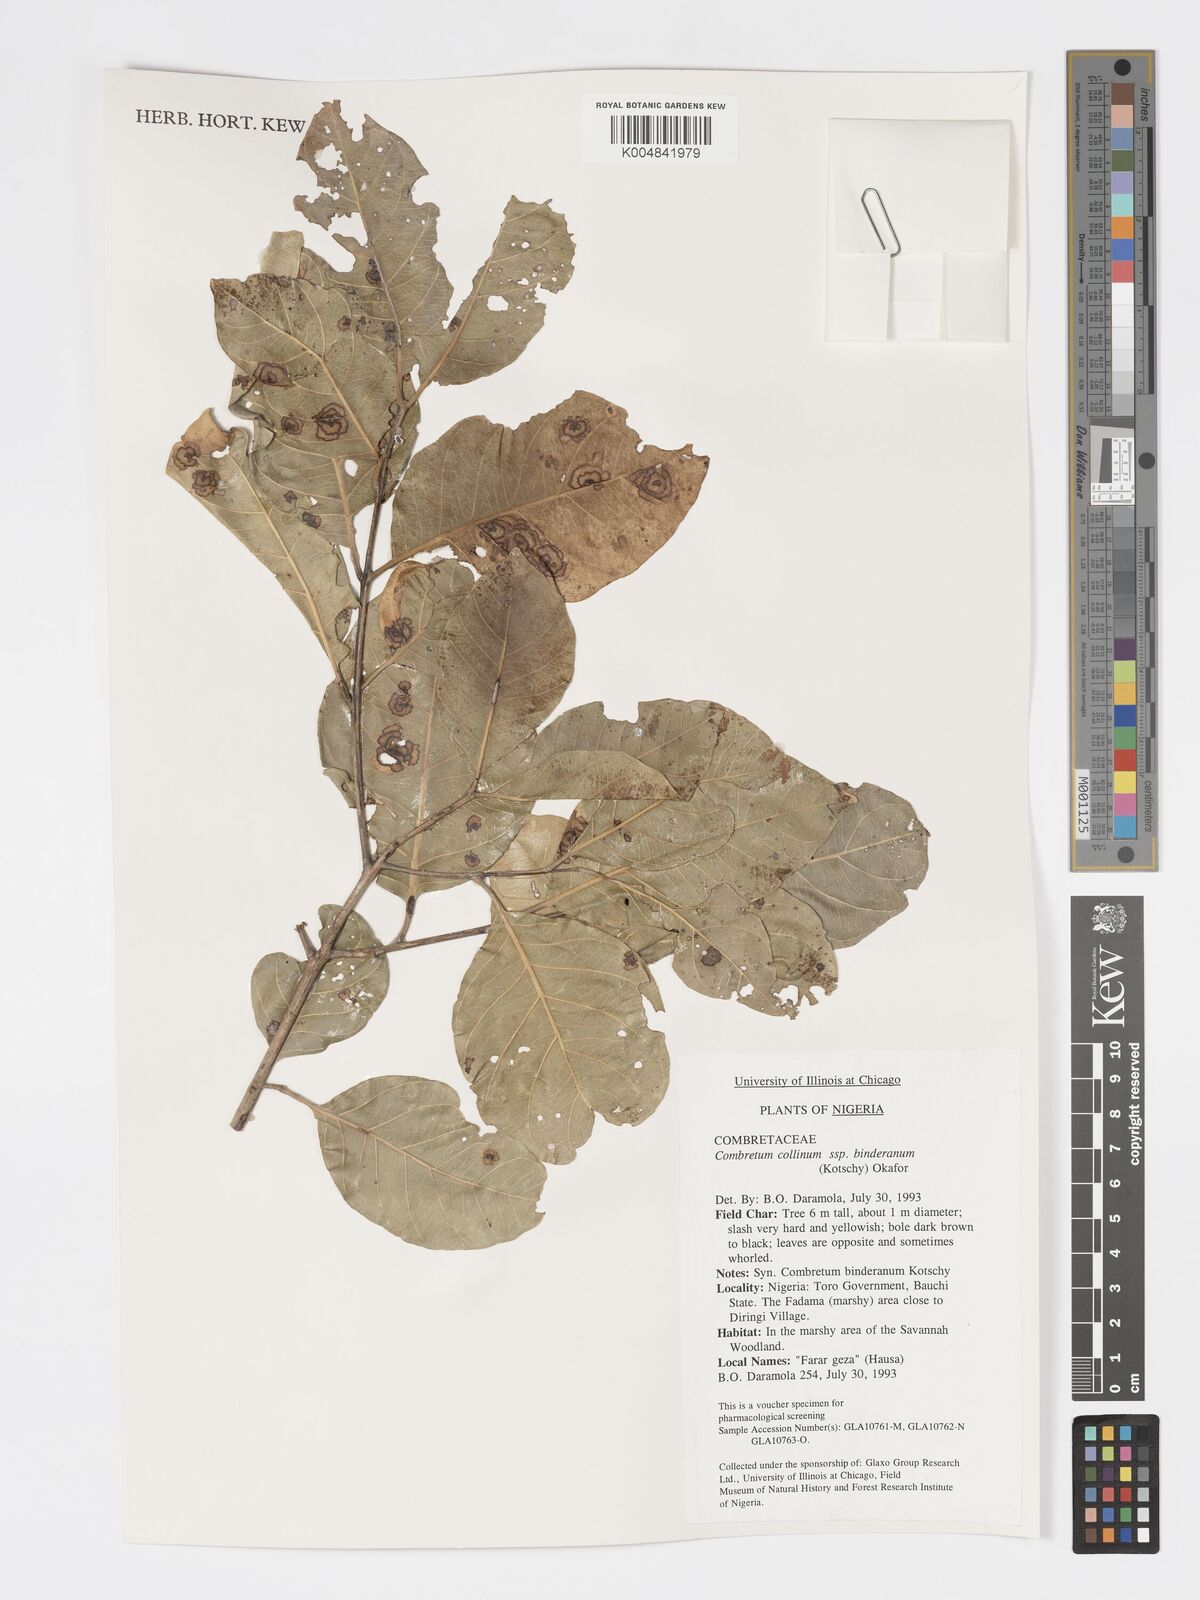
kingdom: Plantae
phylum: Tracheophyta
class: Magnoliopsida
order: Myrtales
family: Combretaceae
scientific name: Combretaceae
